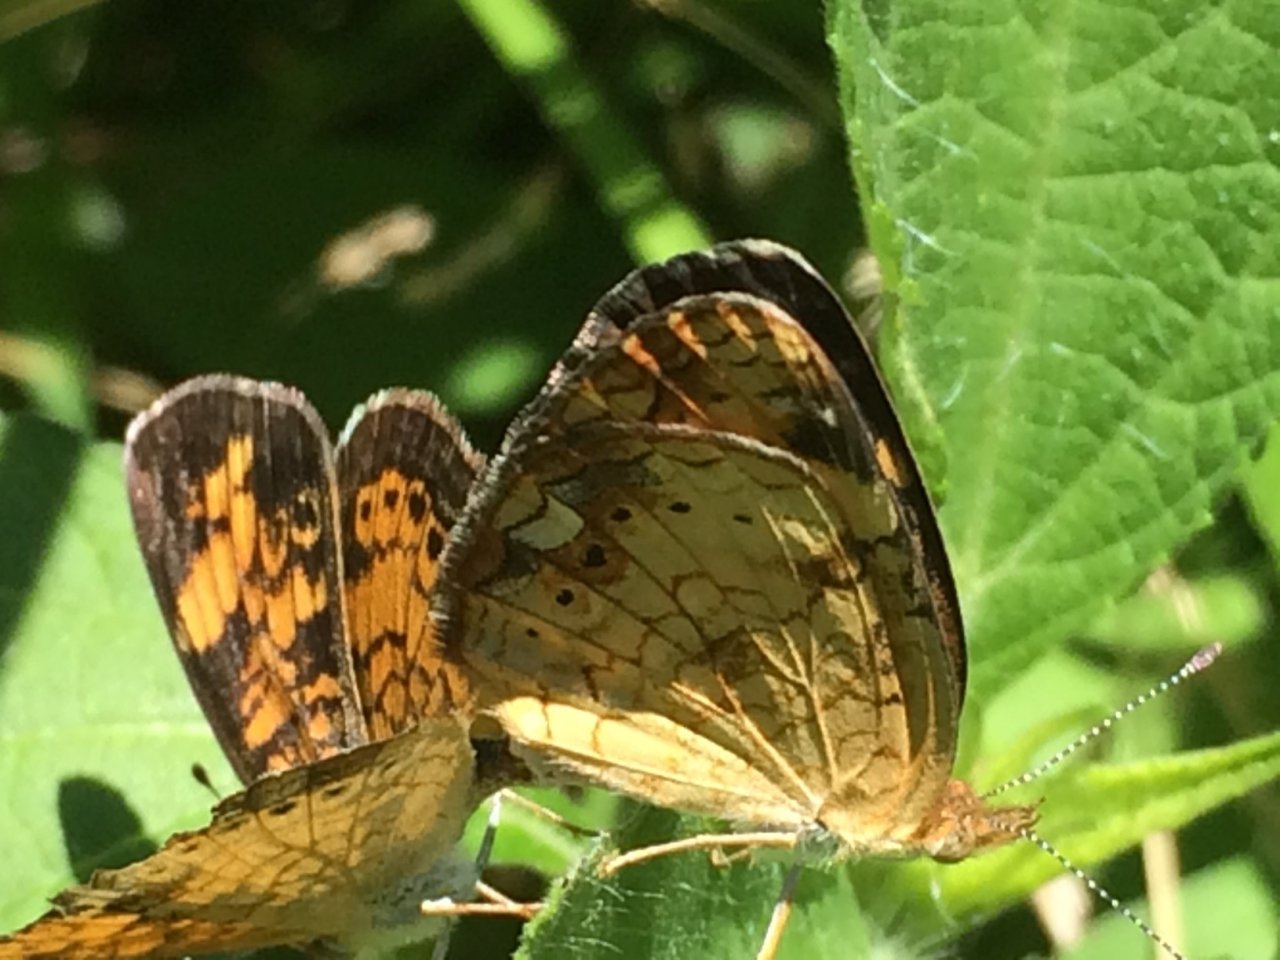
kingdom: Animalia
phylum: Arthropoda
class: Insecta
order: Lepidoptera
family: Nymphalidae
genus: Phyciodes
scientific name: Phyciodes tharos
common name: Pearl Crescent
